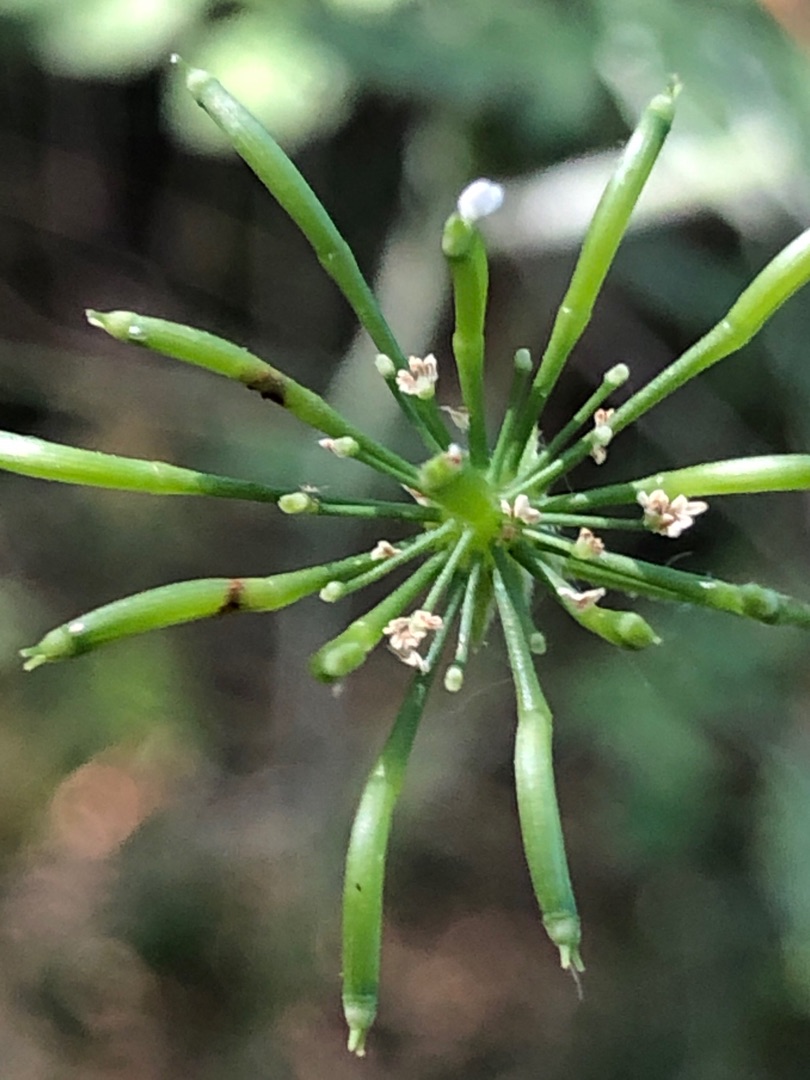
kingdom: Plantae
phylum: Tracheophyta
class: Magnoliopsida
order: Apiales
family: Apiaceae
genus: Chaerophyllum
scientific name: Chaerophyllum temulum
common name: Almindelig hulsvøb
